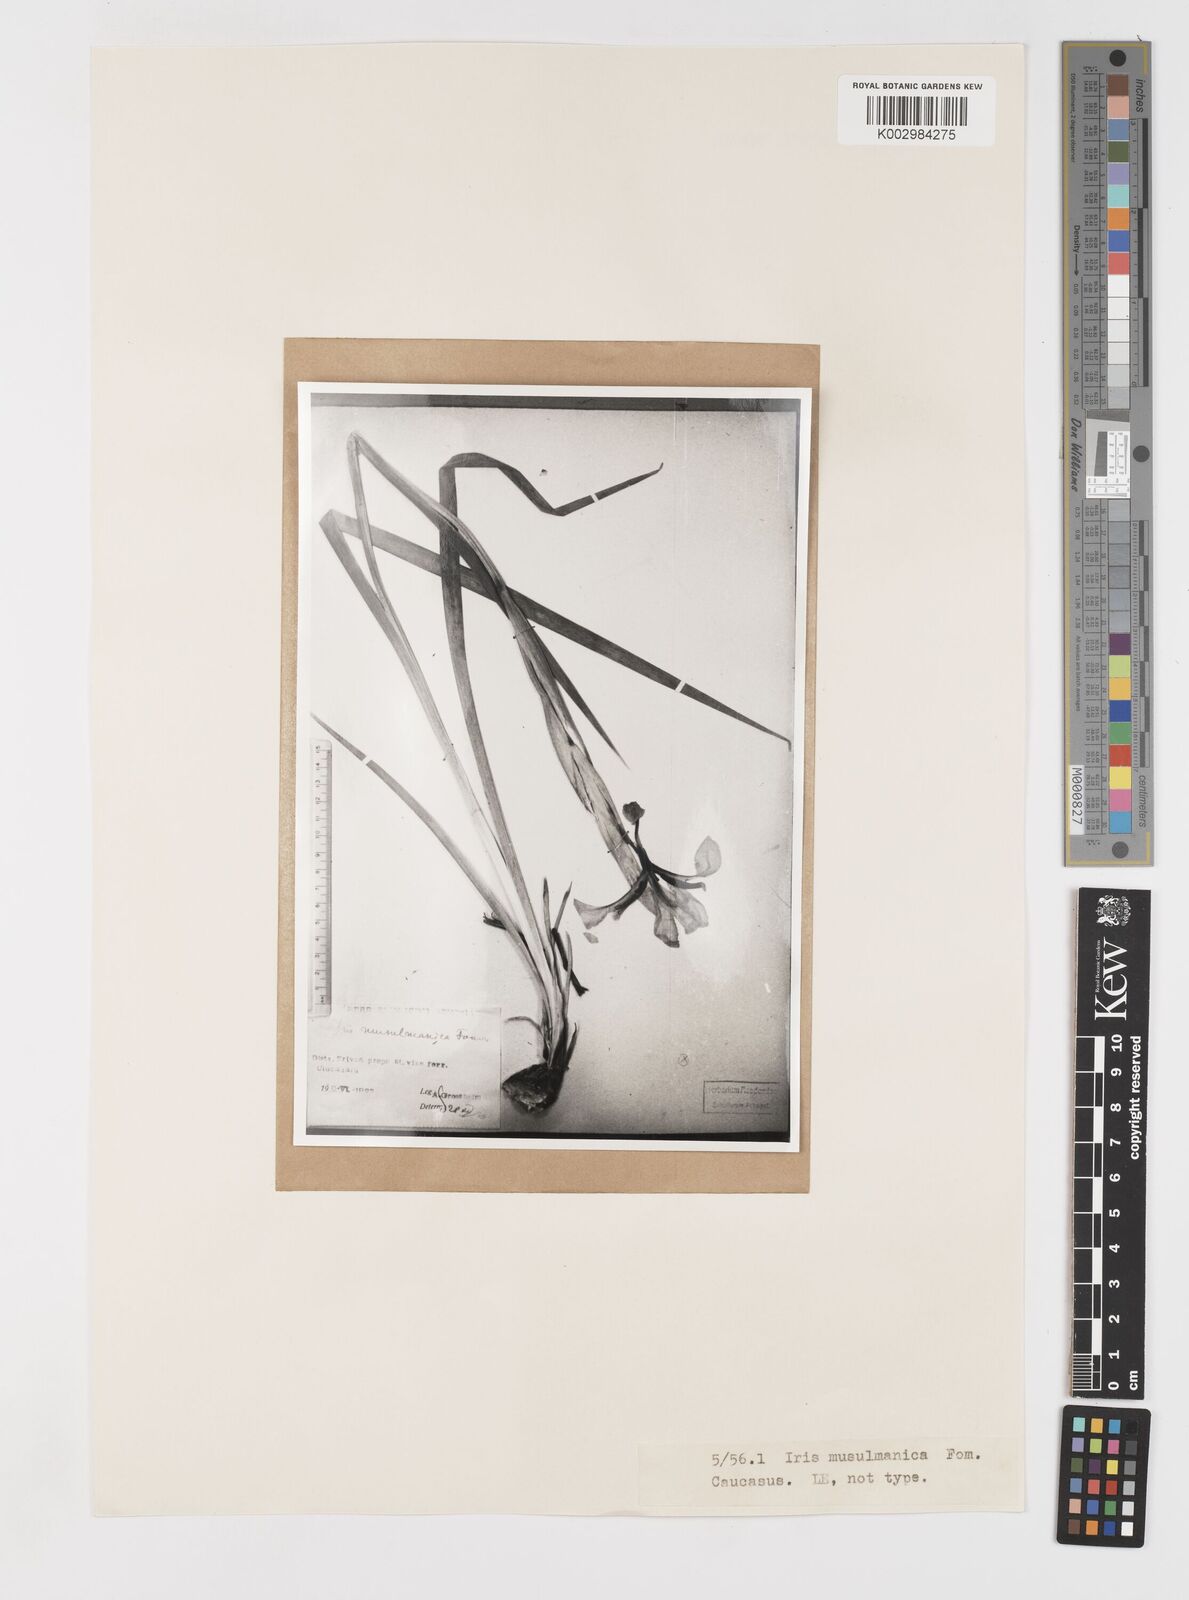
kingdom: Plantae
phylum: Tracheophyta
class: Liliopsida
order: Asparagales
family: Iridaceae
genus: Iris
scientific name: Iris spuria
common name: Blue iris
